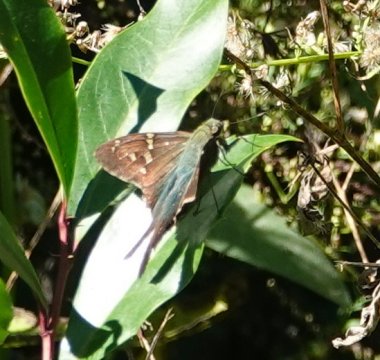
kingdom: Animalia
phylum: Arthropoda
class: Insecta
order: Lepidoptera
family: Hesperiidae
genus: Urbanus
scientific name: Urbanus proteus
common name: Long-tailed Skipper
